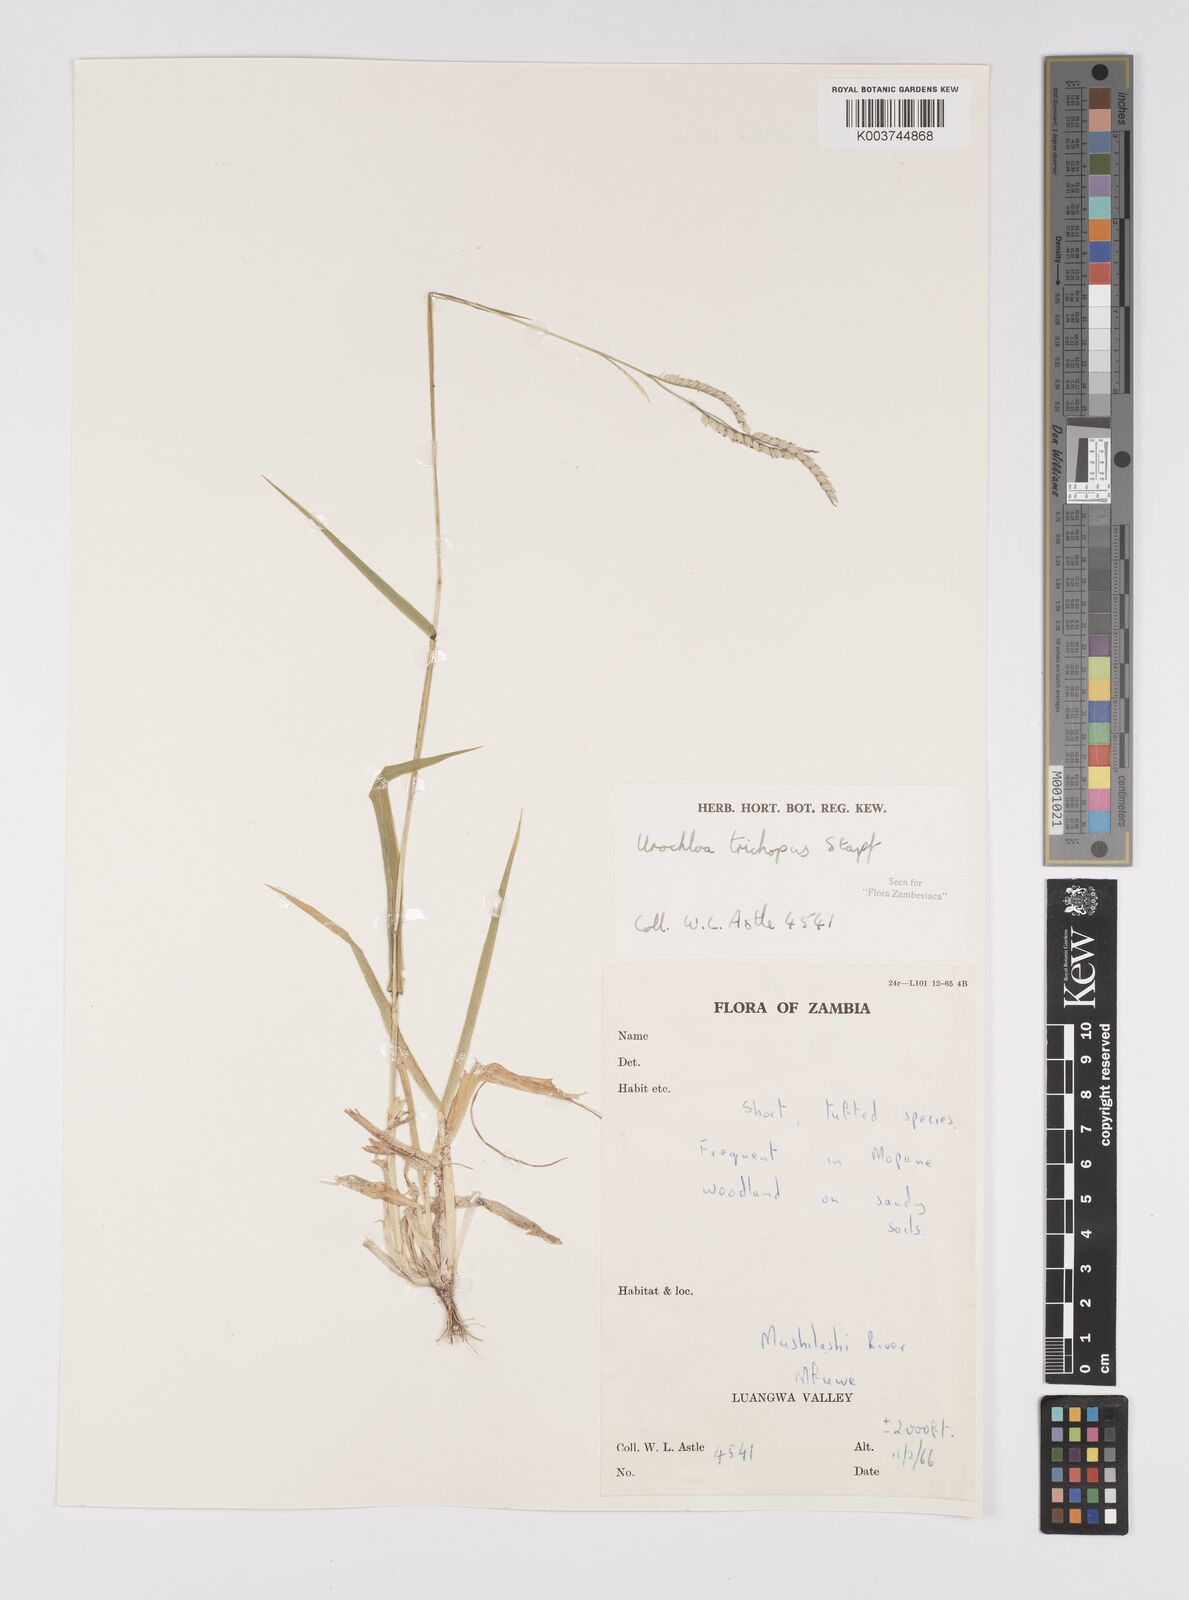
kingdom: Plantae
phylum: Tracheophyta
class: Liliopsida
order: Poales
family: Poaceae
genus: Urochloa
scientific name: Urochloa trichopus
